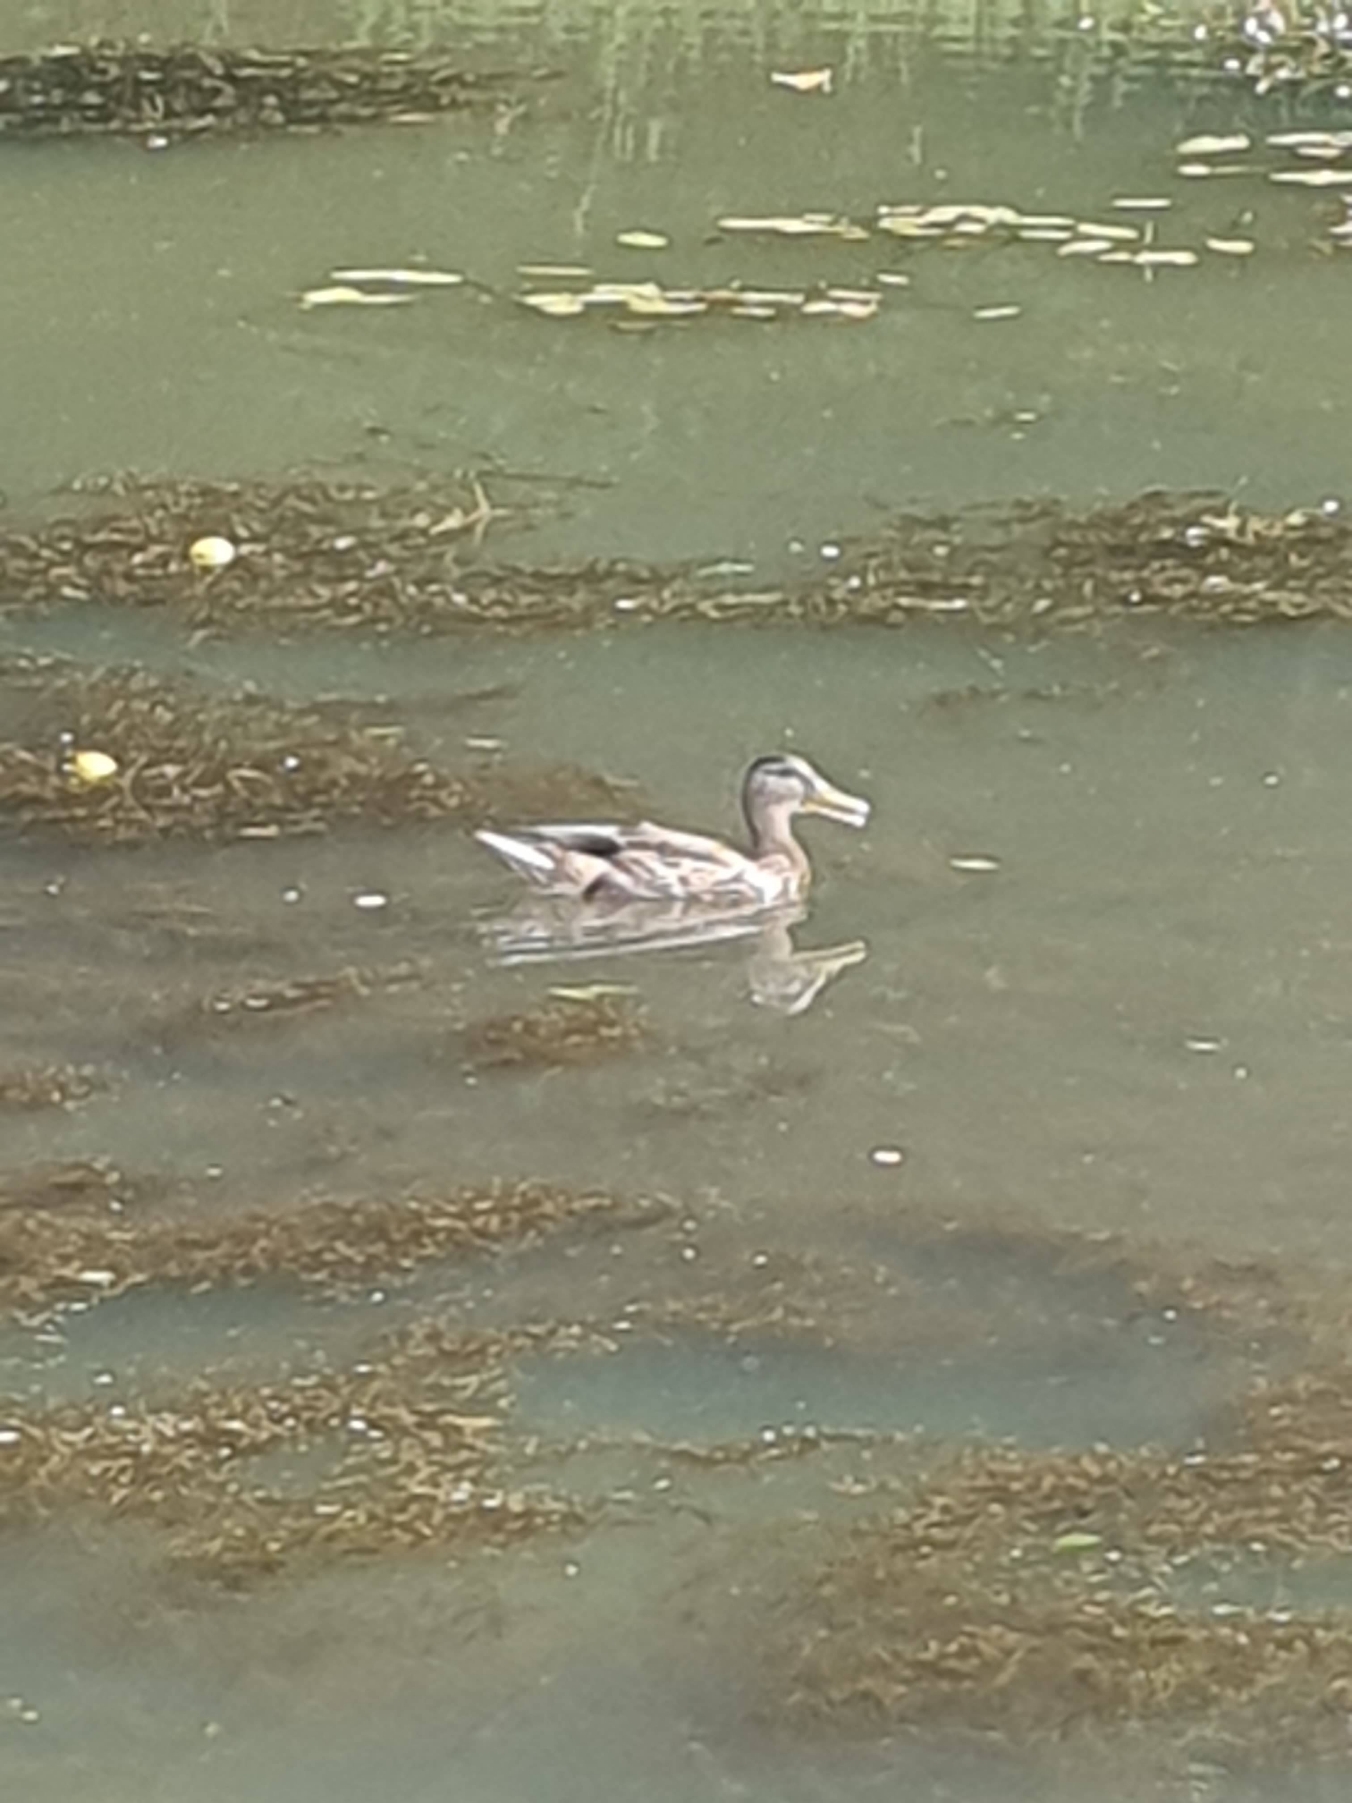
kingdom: Animalia
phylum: Chordata
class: Aves
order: Anseriformes
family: Anatidae
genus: Anas
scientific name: Anas platyrhynchos
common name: Gråand
